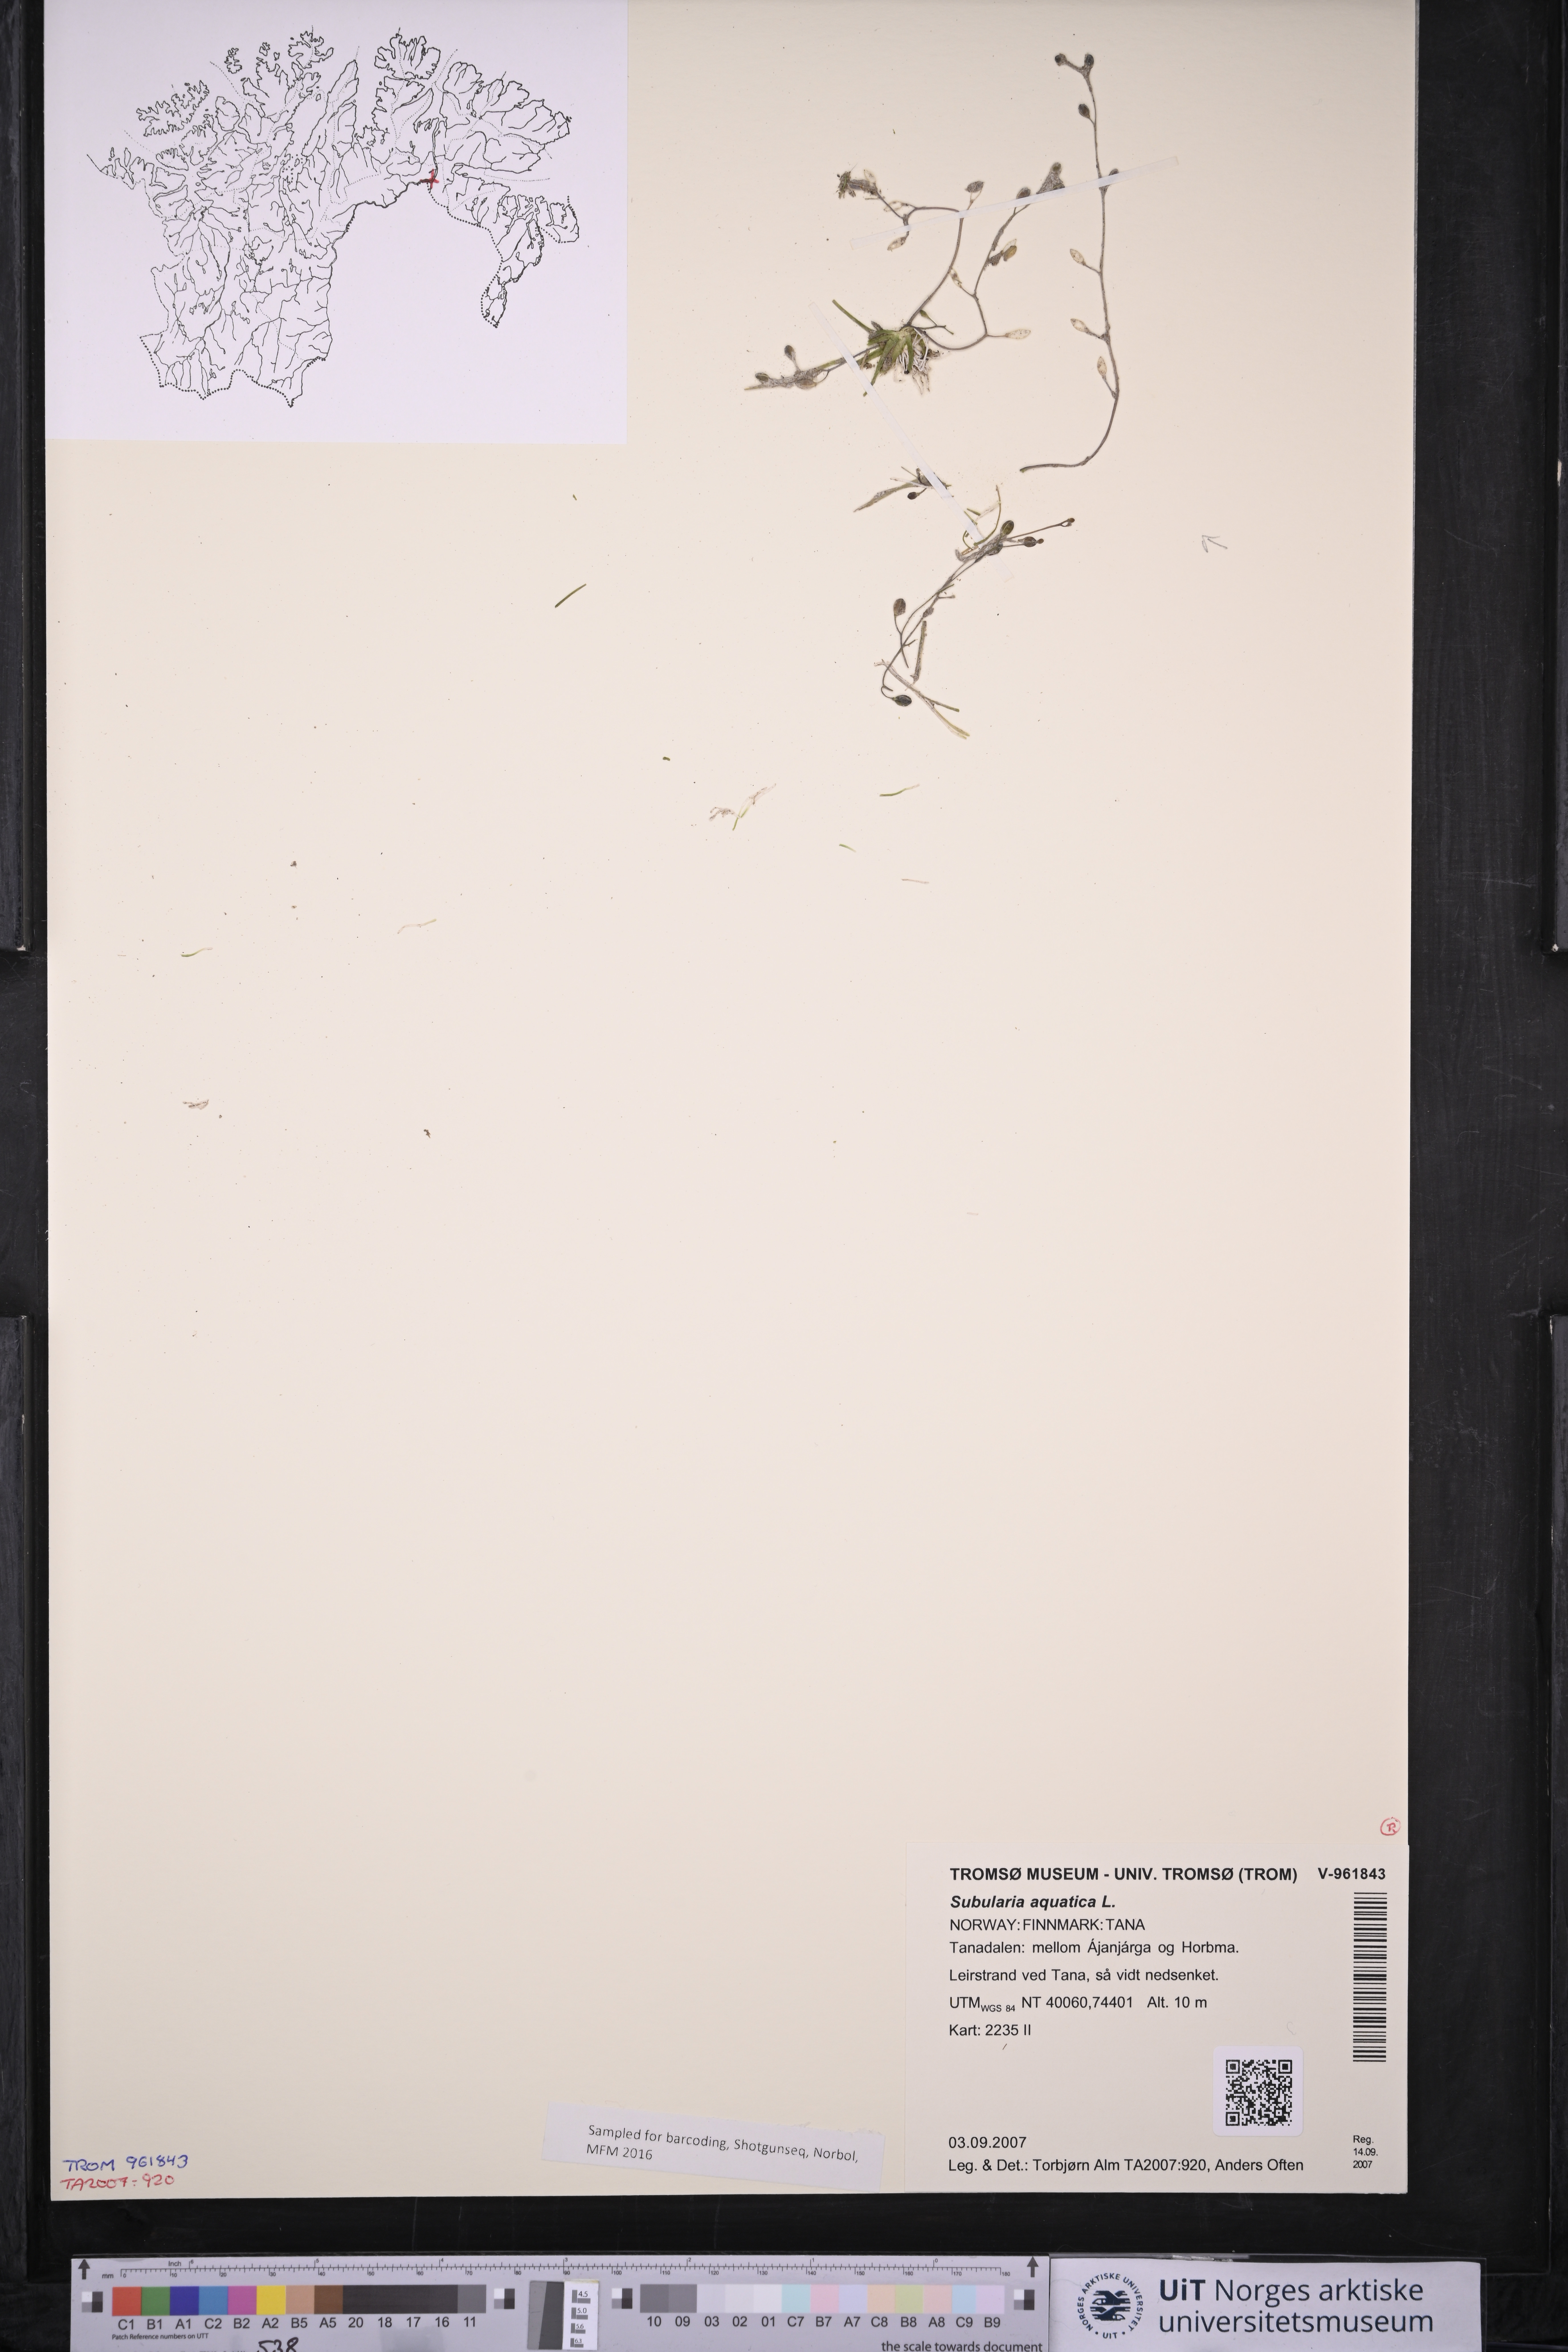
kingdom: Plantae
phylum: Tracheophyta
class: Magnoliopsida
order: Brassicales
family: Brassicaceae
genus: Subularia
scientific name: Subularia aquatica
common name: Awlwort
